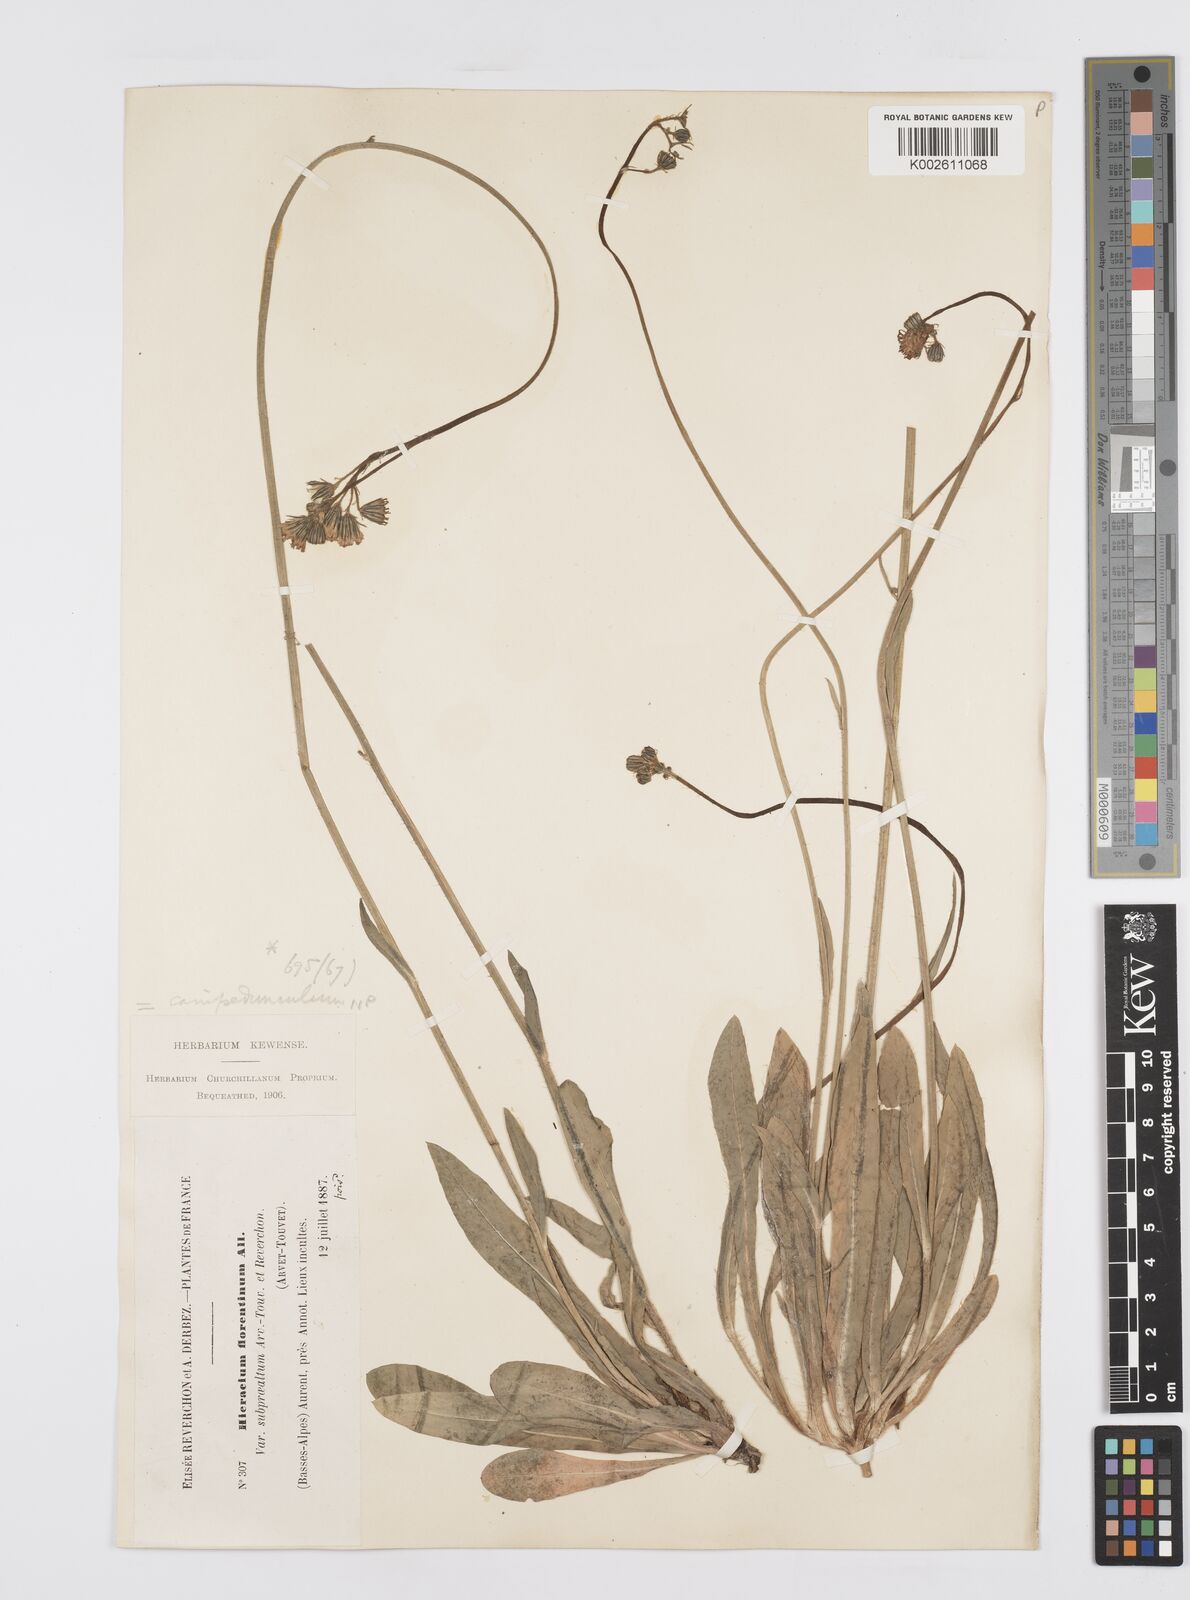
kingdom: Plantae
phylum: Tracheophyta
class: Magnoliopsida
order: Asterales
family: Asteraceae
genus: Pilosella
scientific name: Pilosella piloselloides
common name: Glaucous king-devil
